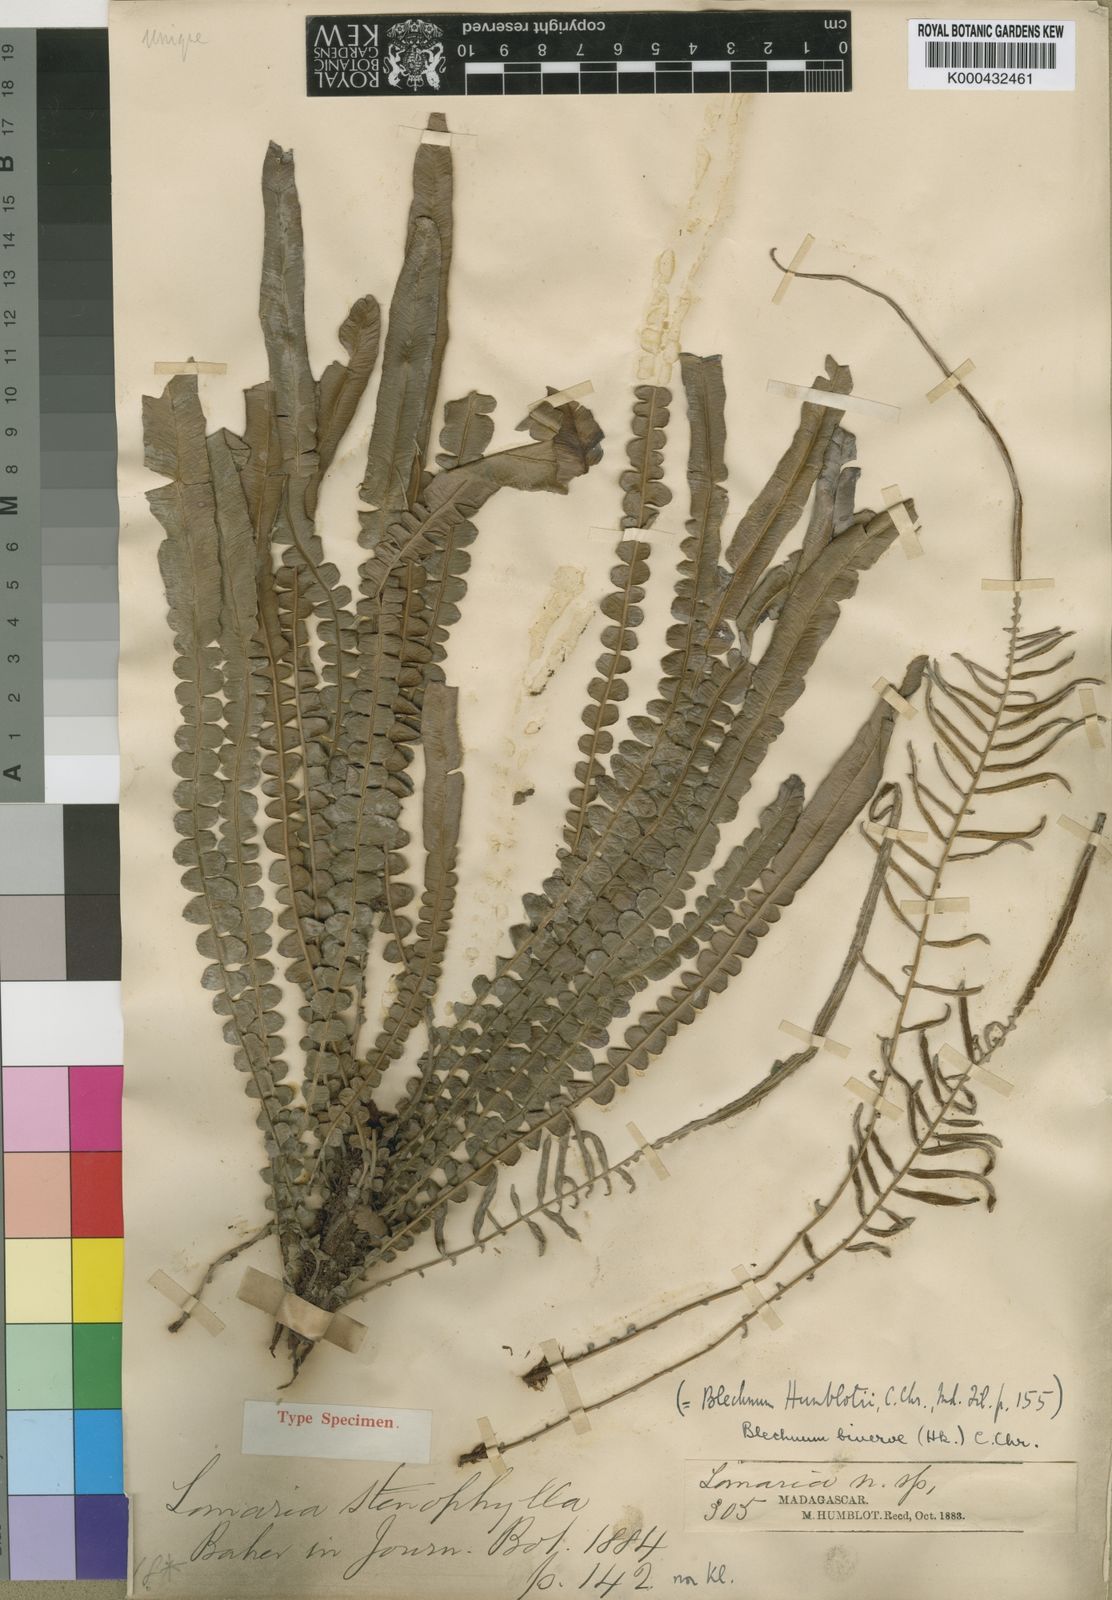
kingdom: Plantae
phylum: Tracheophyta
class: Polypodiopsida
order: Polypodiales
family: Blechnaceae
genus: Lomaridium
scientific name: Lomaridium xiphophyllum
